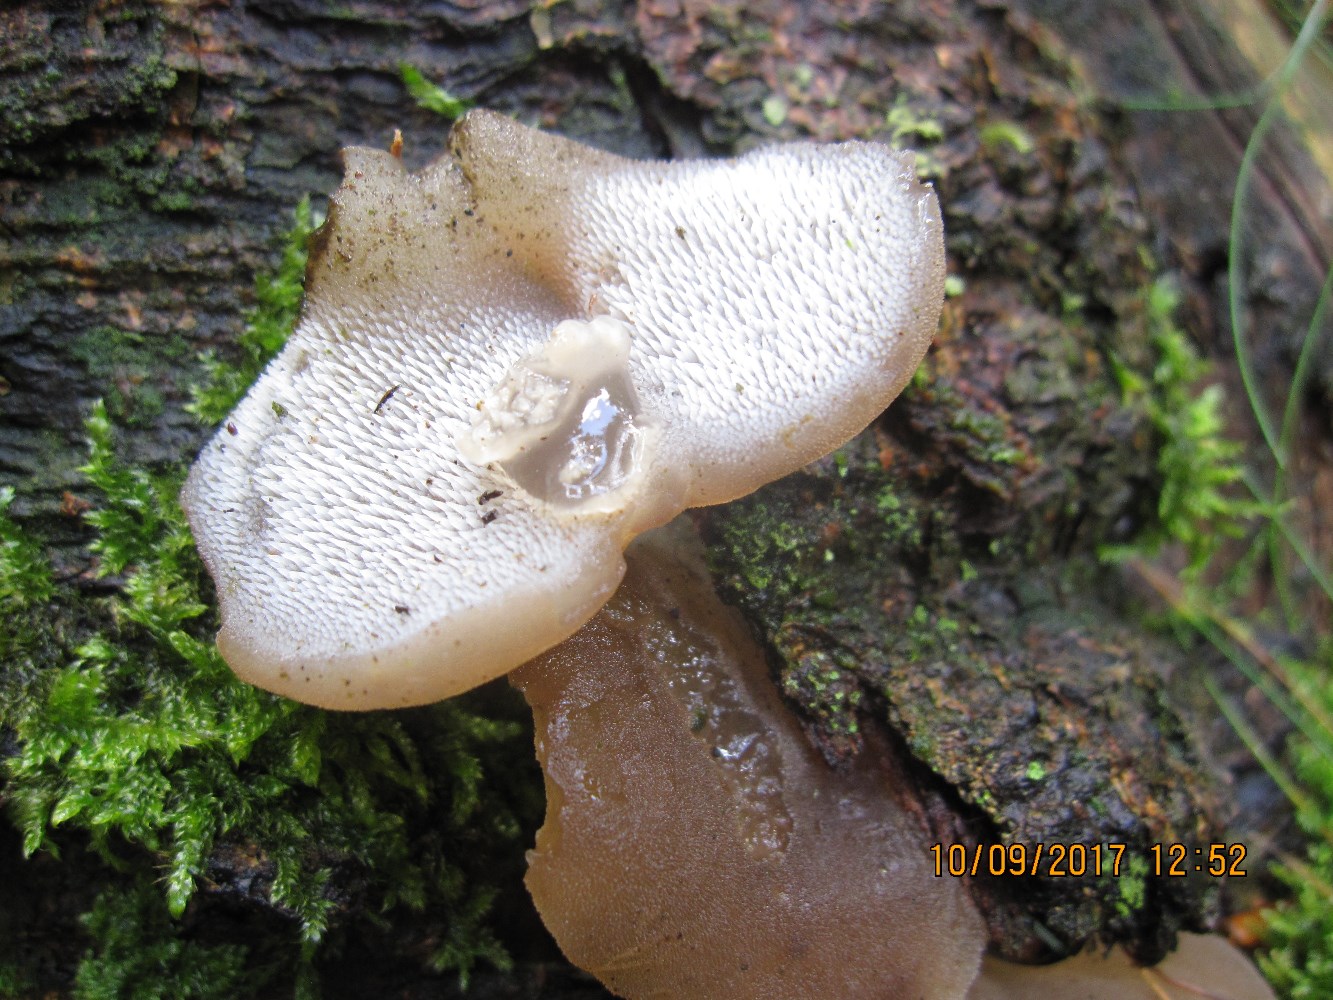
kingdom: Fungi
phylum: Basidiomycota
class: Agaricomycetes
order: Auriculariales
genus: Pseudohydnum
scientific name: Pseudohydnum gelatinosum
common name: bævretand
